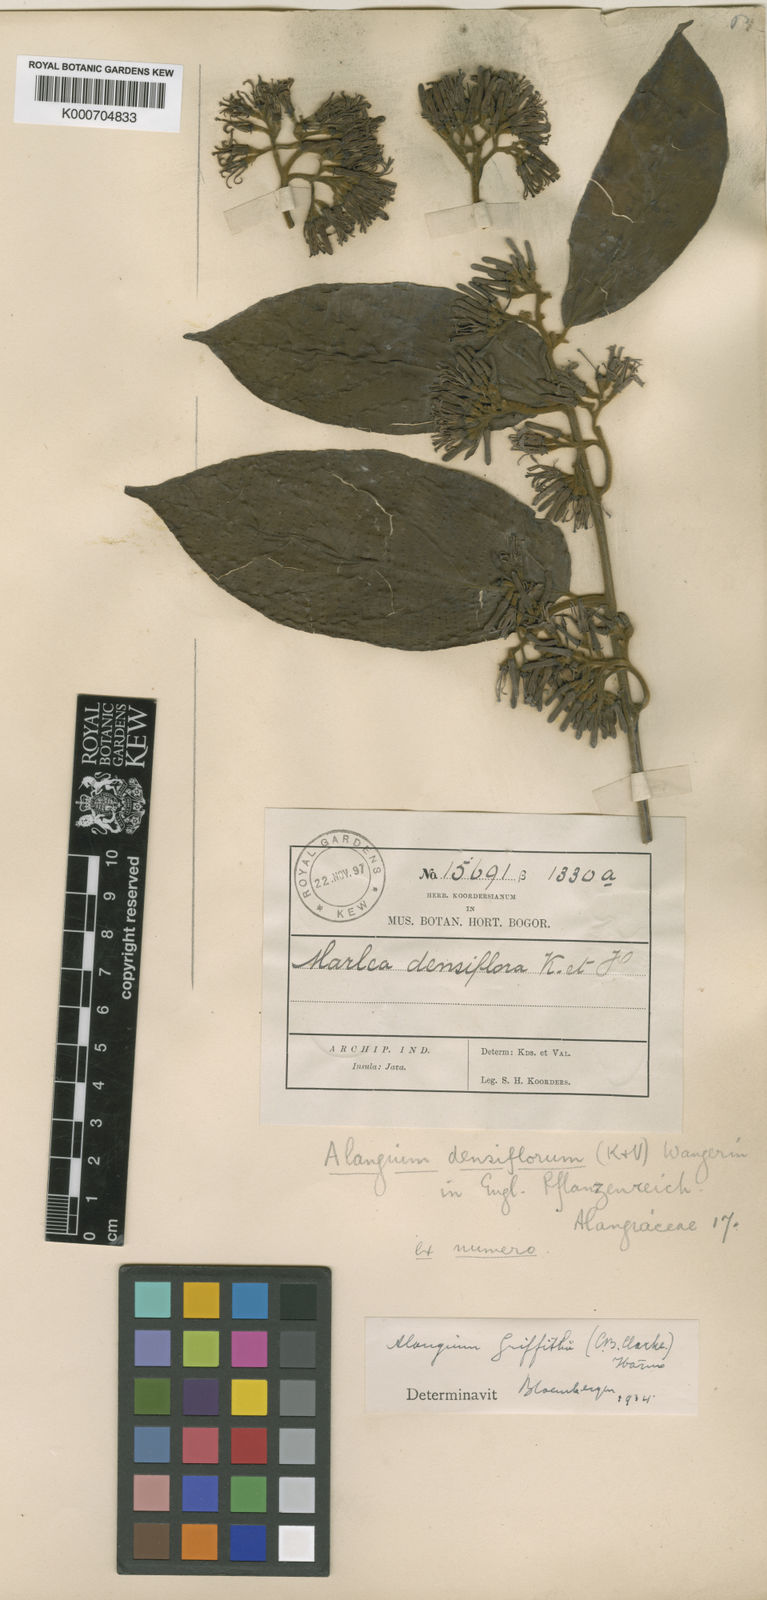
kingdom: Plantae
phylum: Tracheophyta
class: Magnoliopsida
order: Cornales
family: Cornaceae
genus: Alangium
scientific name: Alangium uniloculare
